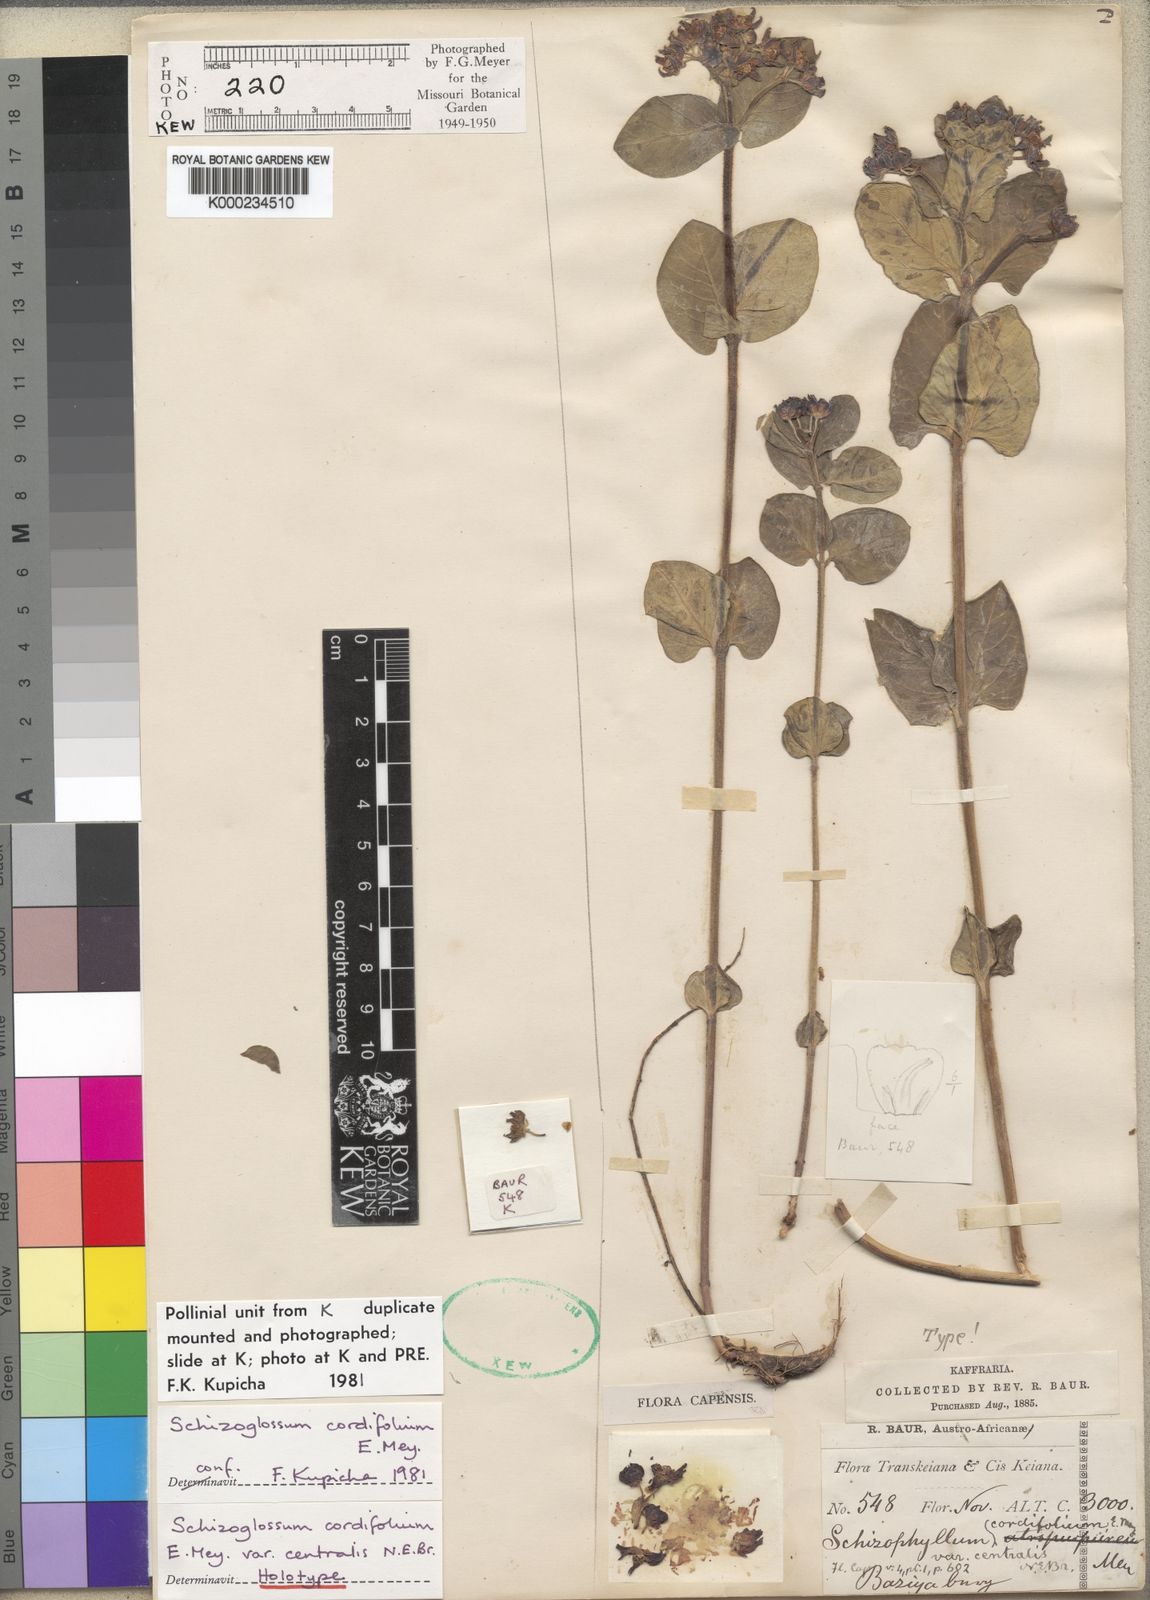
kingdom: Plantae
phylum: Tracheophyta
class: Magnoliopsida
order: Gentianales
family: Apocynaceae
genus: Schizoglossum
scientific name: Schizoglossum cordifolium
